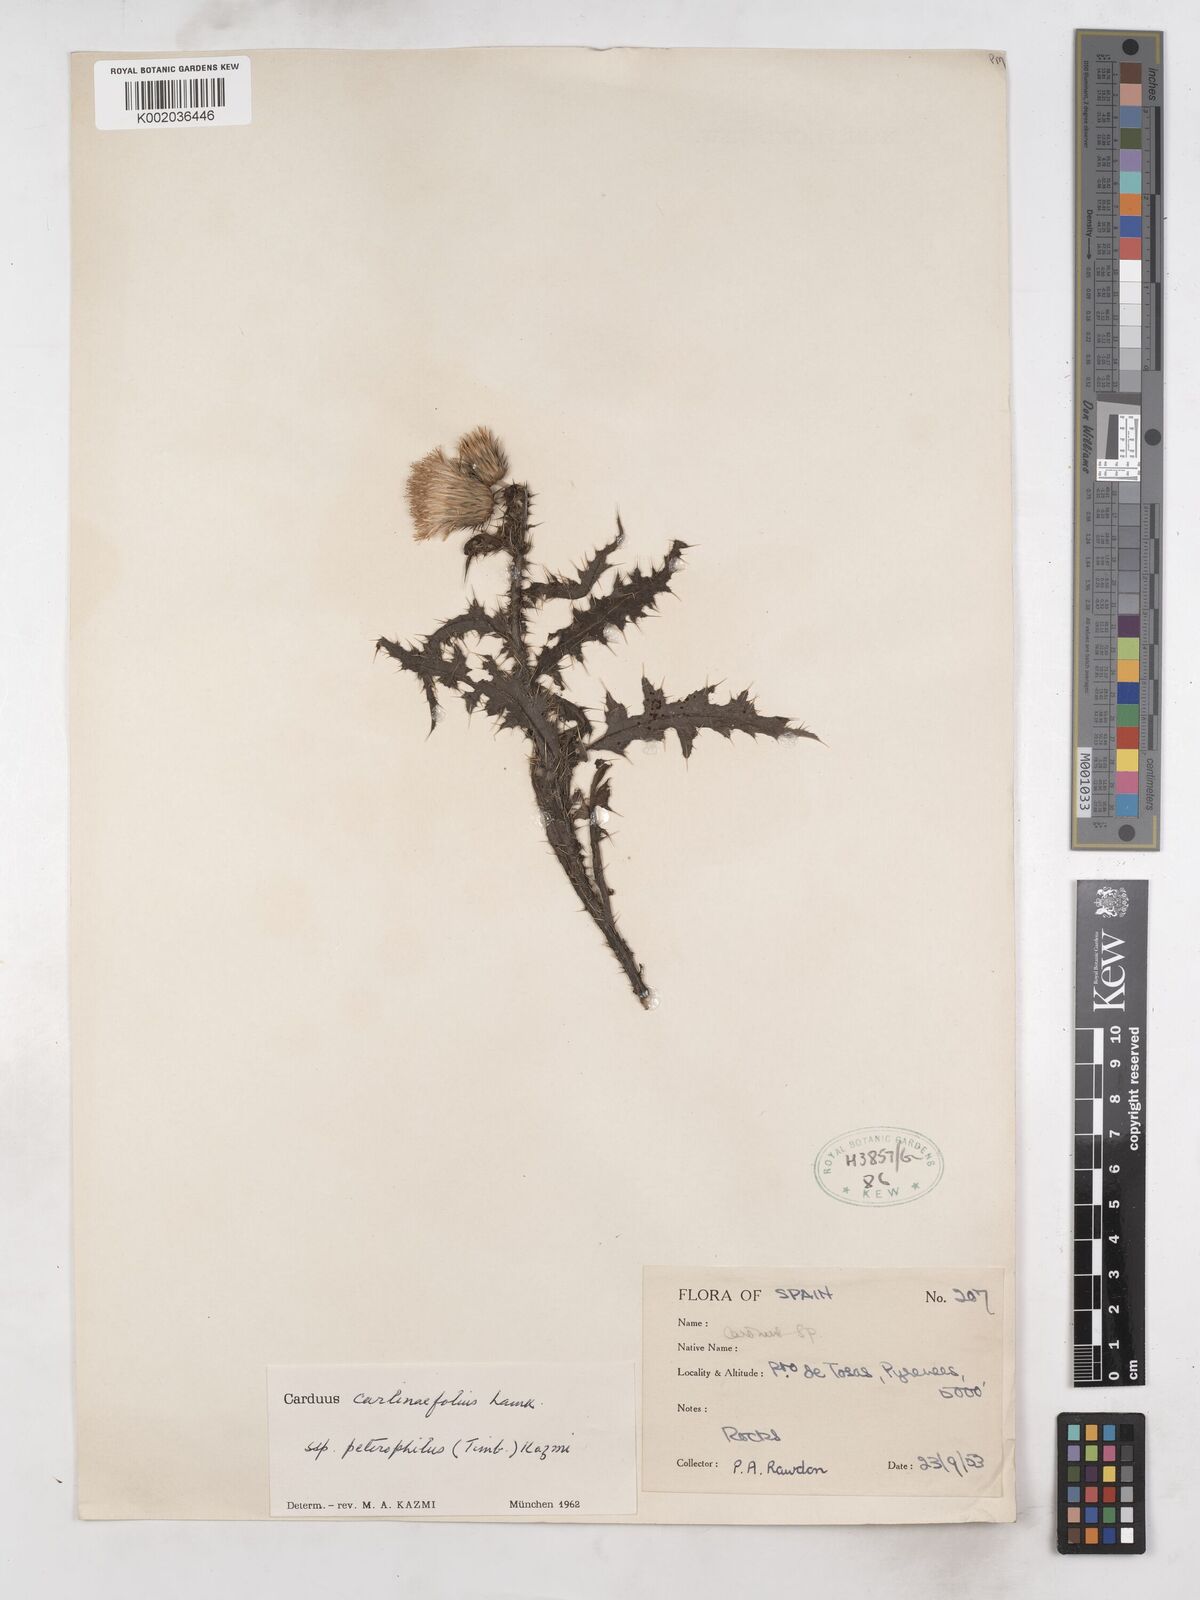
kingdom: Plantae
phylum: Tracheophyta
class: Magnoliopsida
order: Asterales
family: Asteraceae
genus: Carduus
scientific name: Carduus carlinifolius
